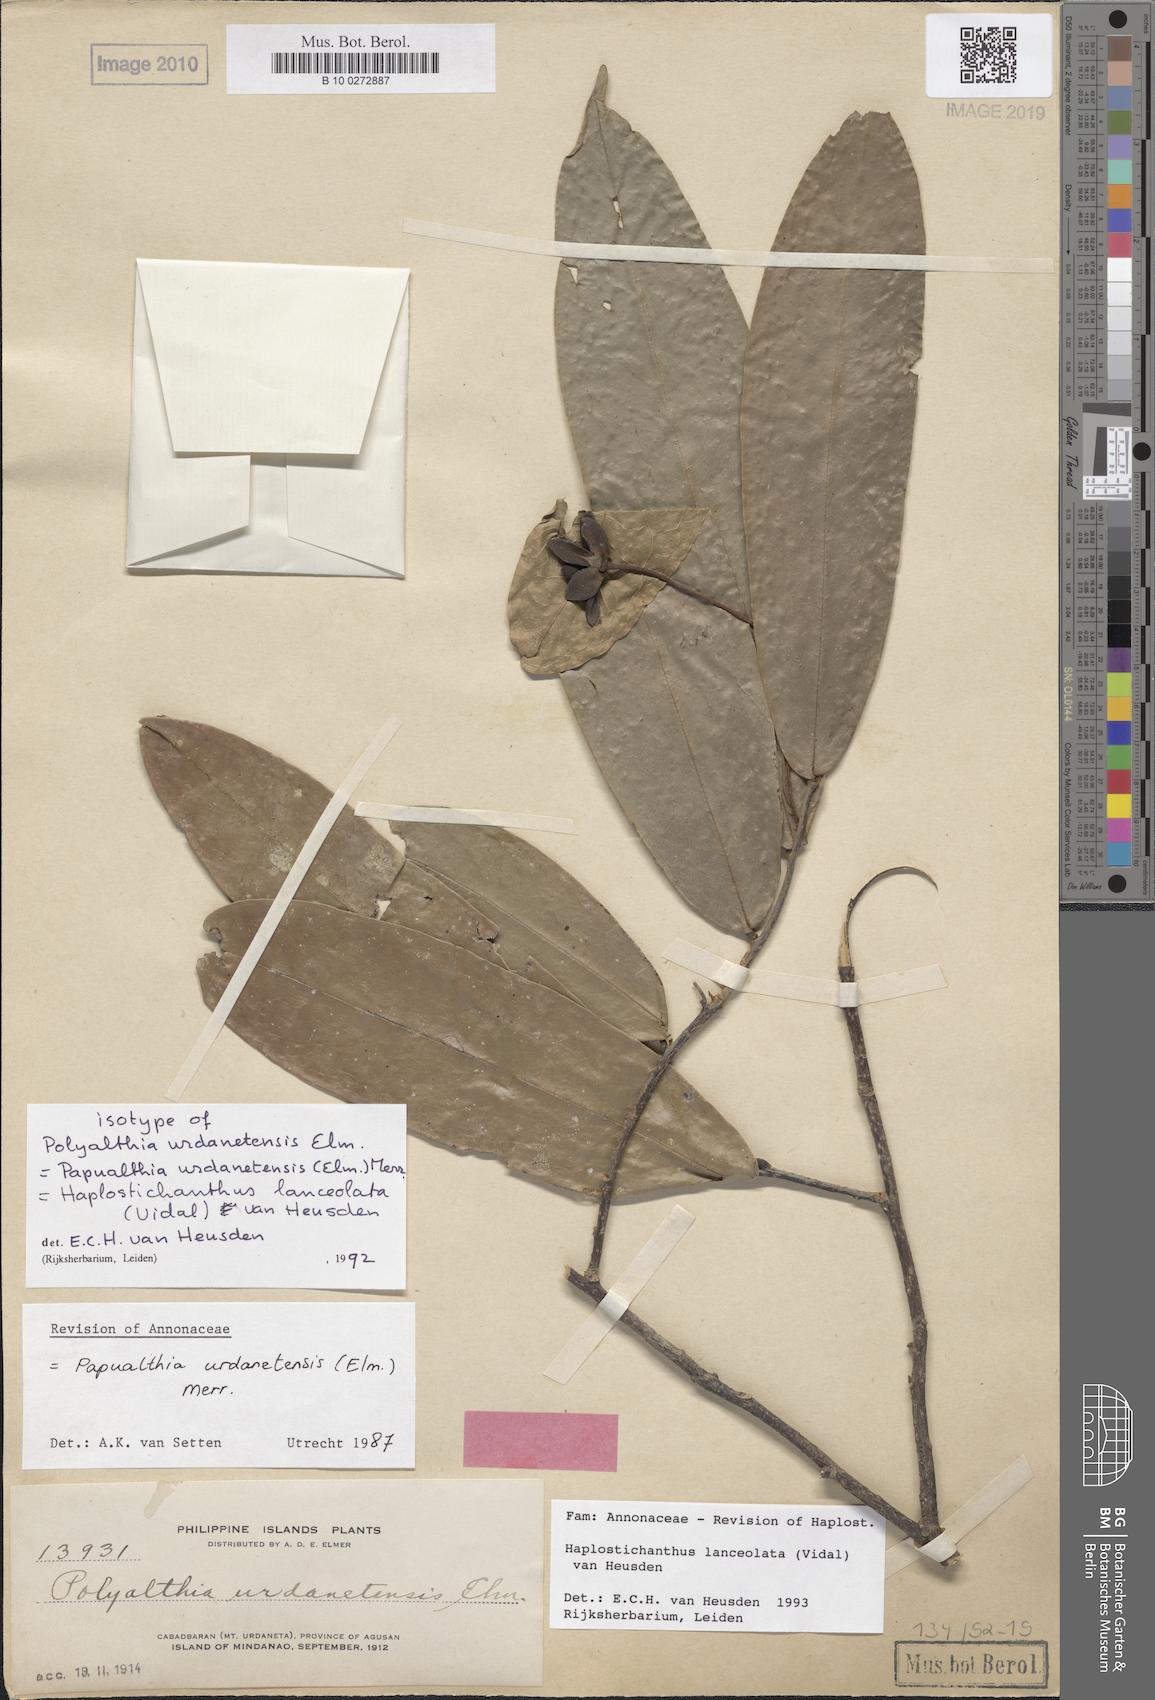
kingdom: Plantae
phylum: Tracheophyta
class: Magnoliopsida
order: Magnoliales
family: Annonaceae
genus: Haplostichanthus
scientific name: Haplostichanthus lanceolata
